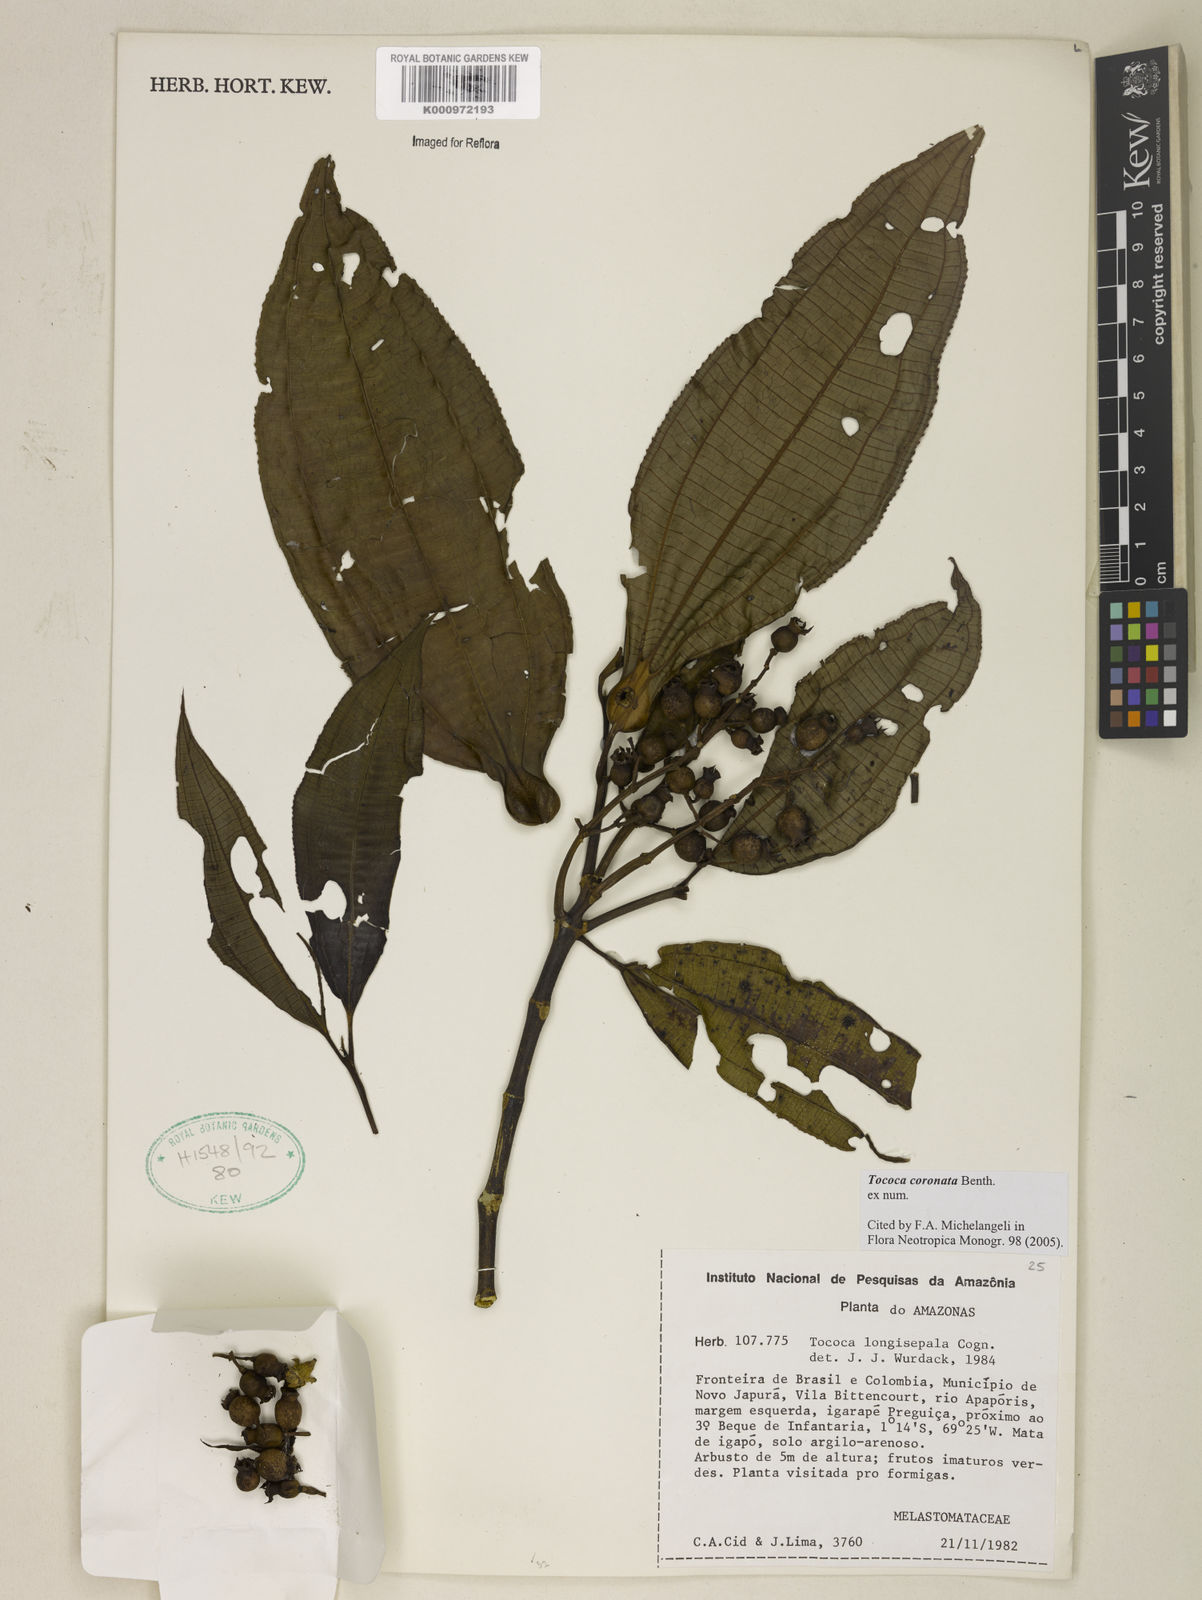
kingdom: Plantae
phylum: Tracheophyta
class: Magnoliopsida
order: Myrtales
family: Melastomataceae
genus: Miconia
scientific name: Miconia tococoronata
